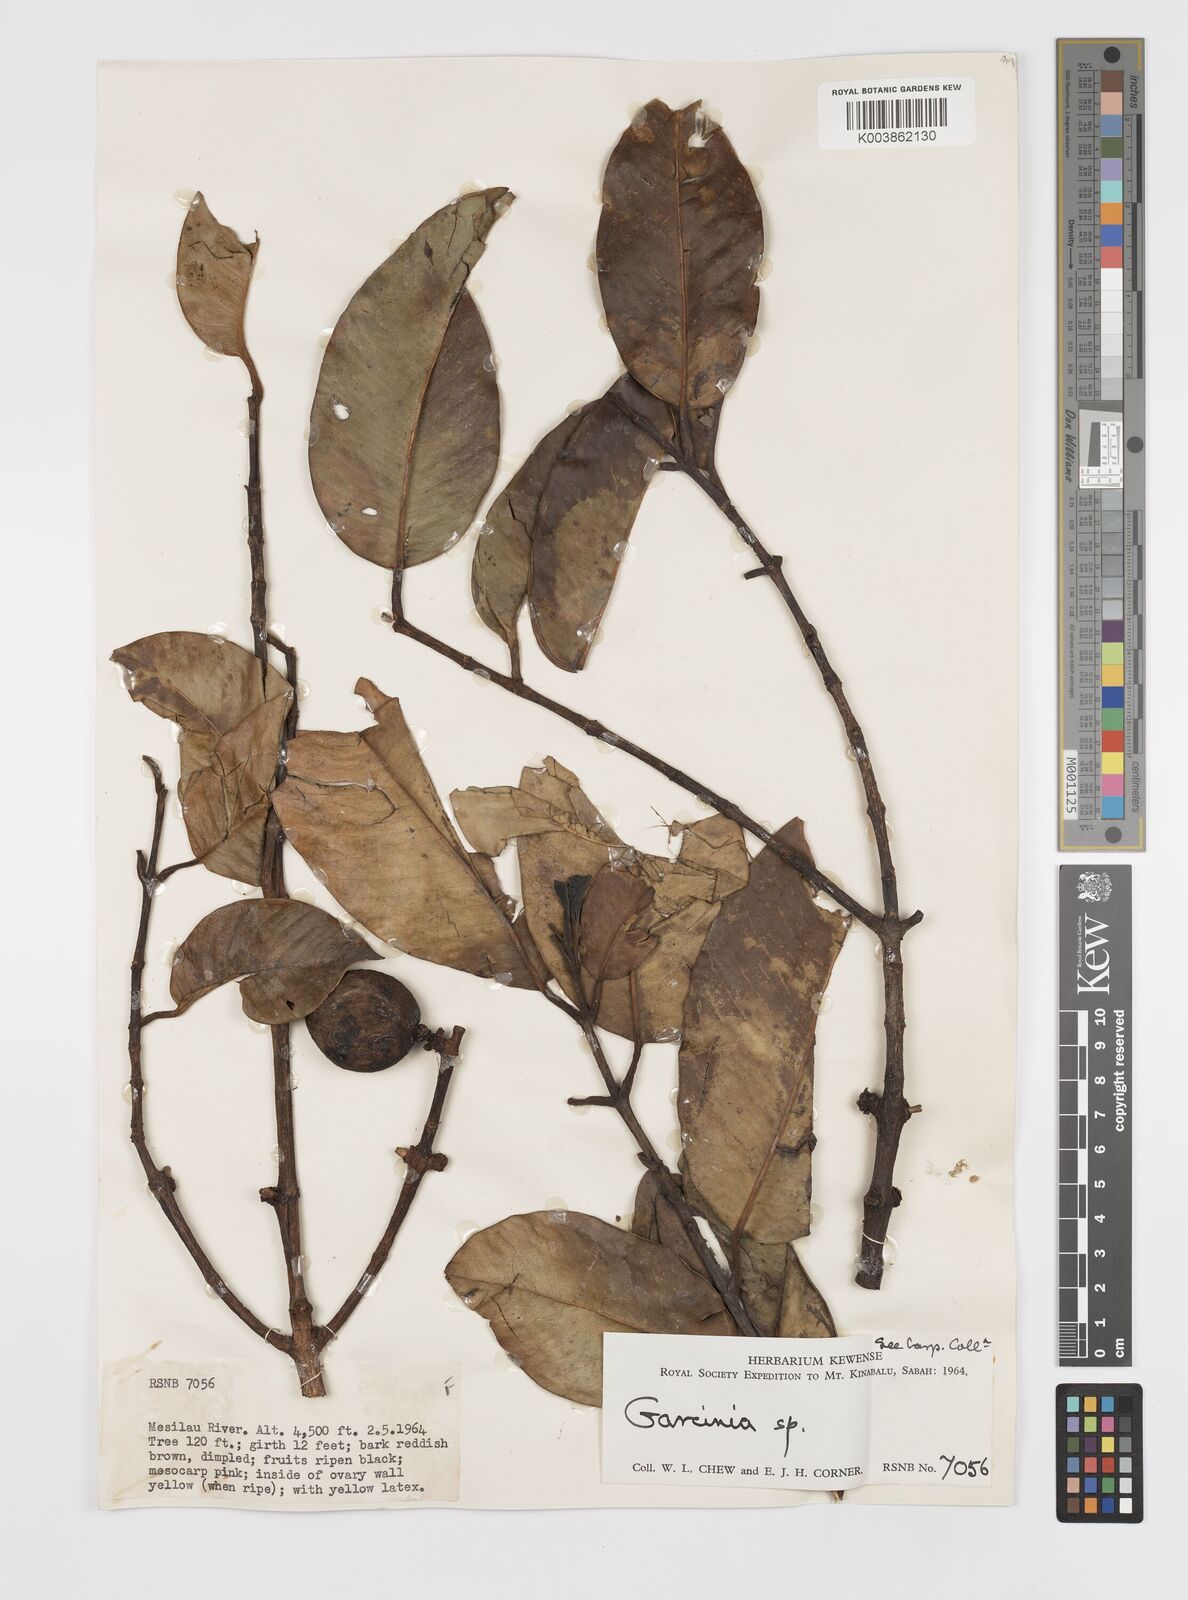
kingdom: Plantae
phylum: Tracheophyta
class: Magnoliopsida
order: Malpighiales
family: Clusiaceae
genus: Garcinia
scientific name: Garcinia
